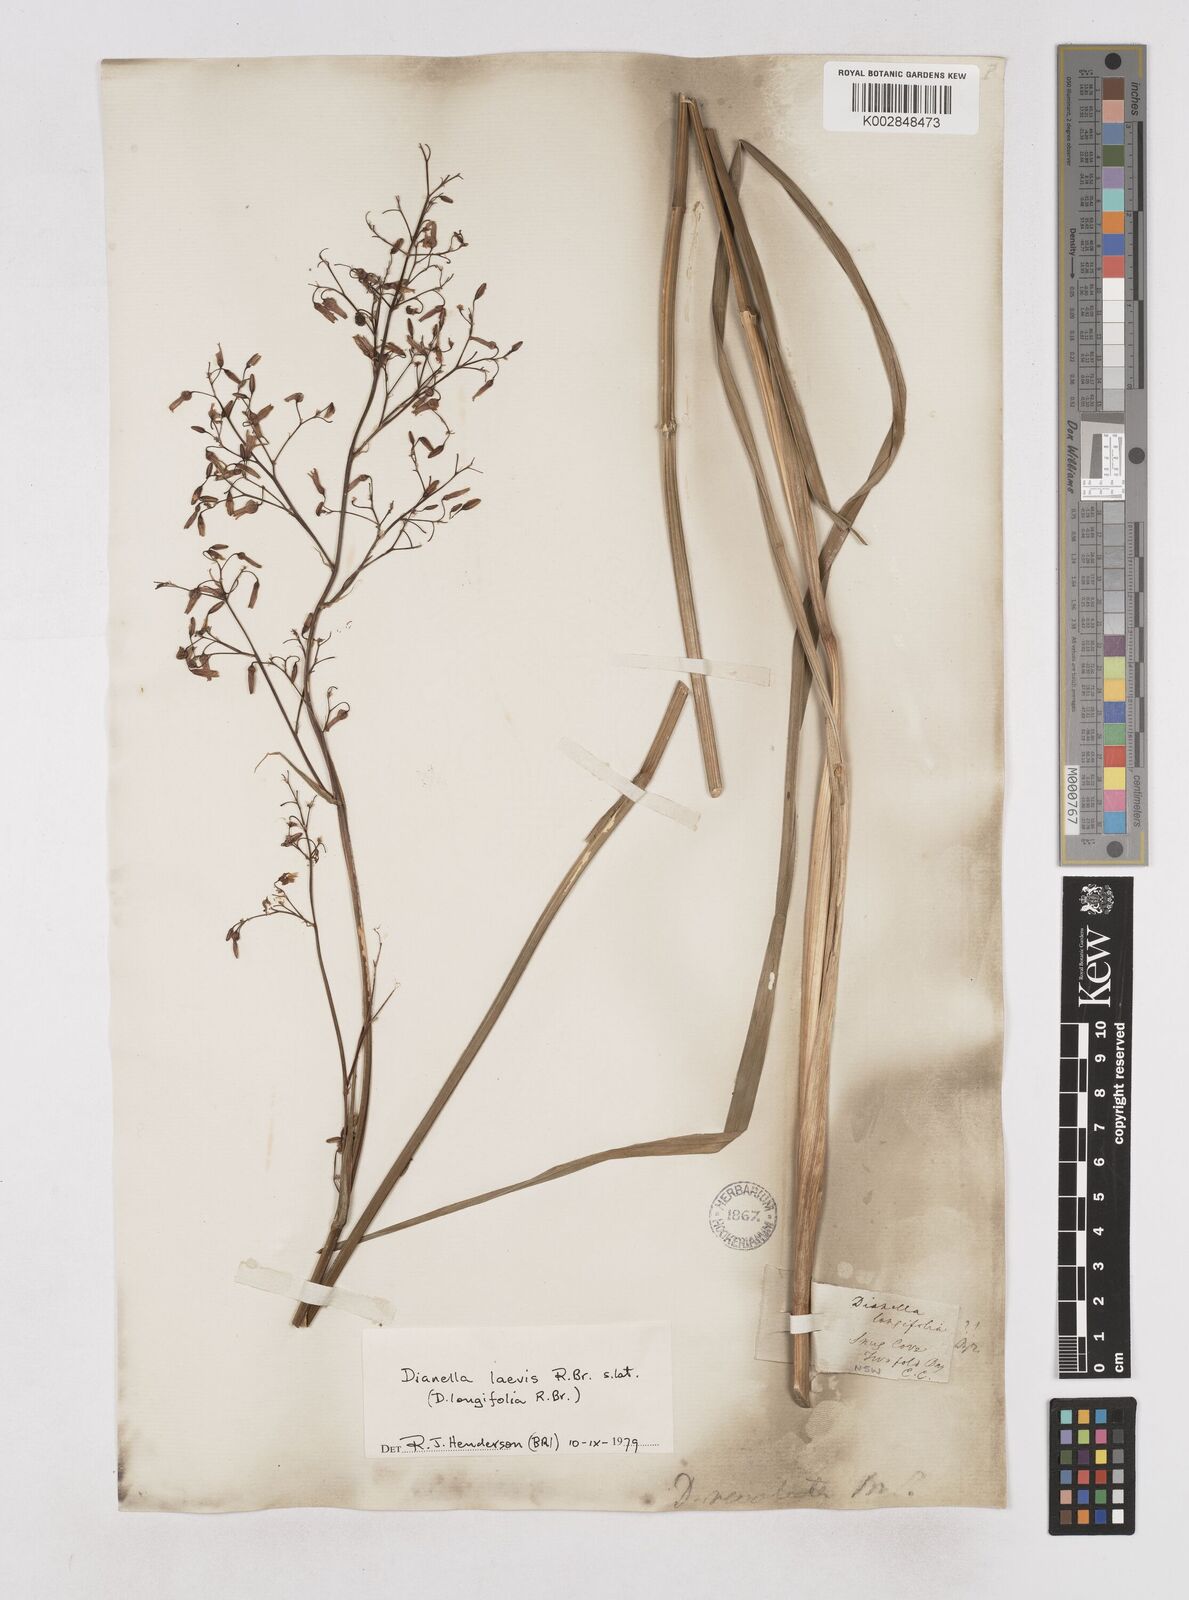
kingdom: Plantae
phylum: Tracheophyta
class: Liliopsida
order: Asparagales
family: Asphodelaceae
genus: Dianella
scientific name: Dianella longifolia
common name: Blue flax-lily
